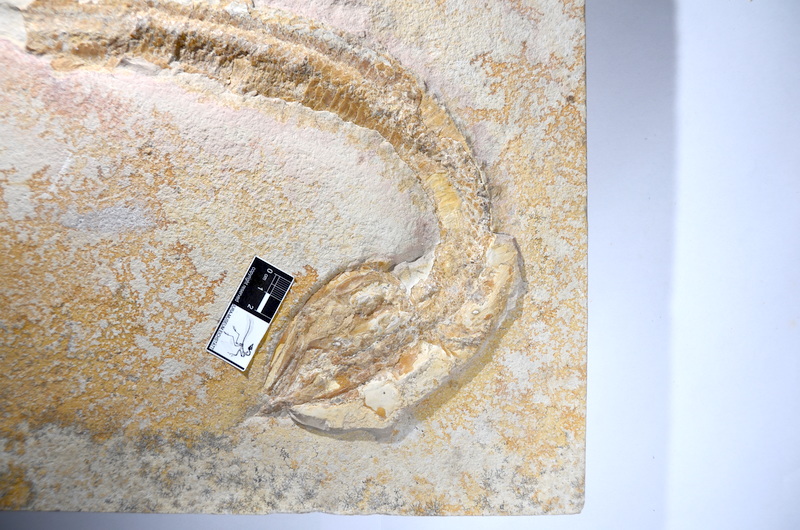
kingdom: Animalia
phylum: Chordata
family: Aspidorhynchidae
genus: Aspidorhynchus
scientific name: Aspidorhynchus acutirostris
